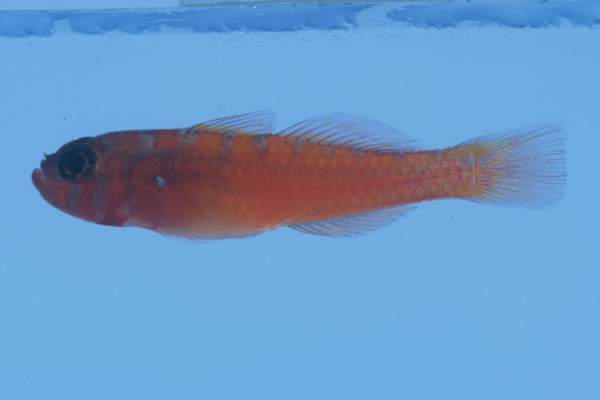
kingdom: Animalia
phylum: Chordata
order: Perciformes
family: Gobiidae
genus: Trimma
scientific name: Trimma haima
